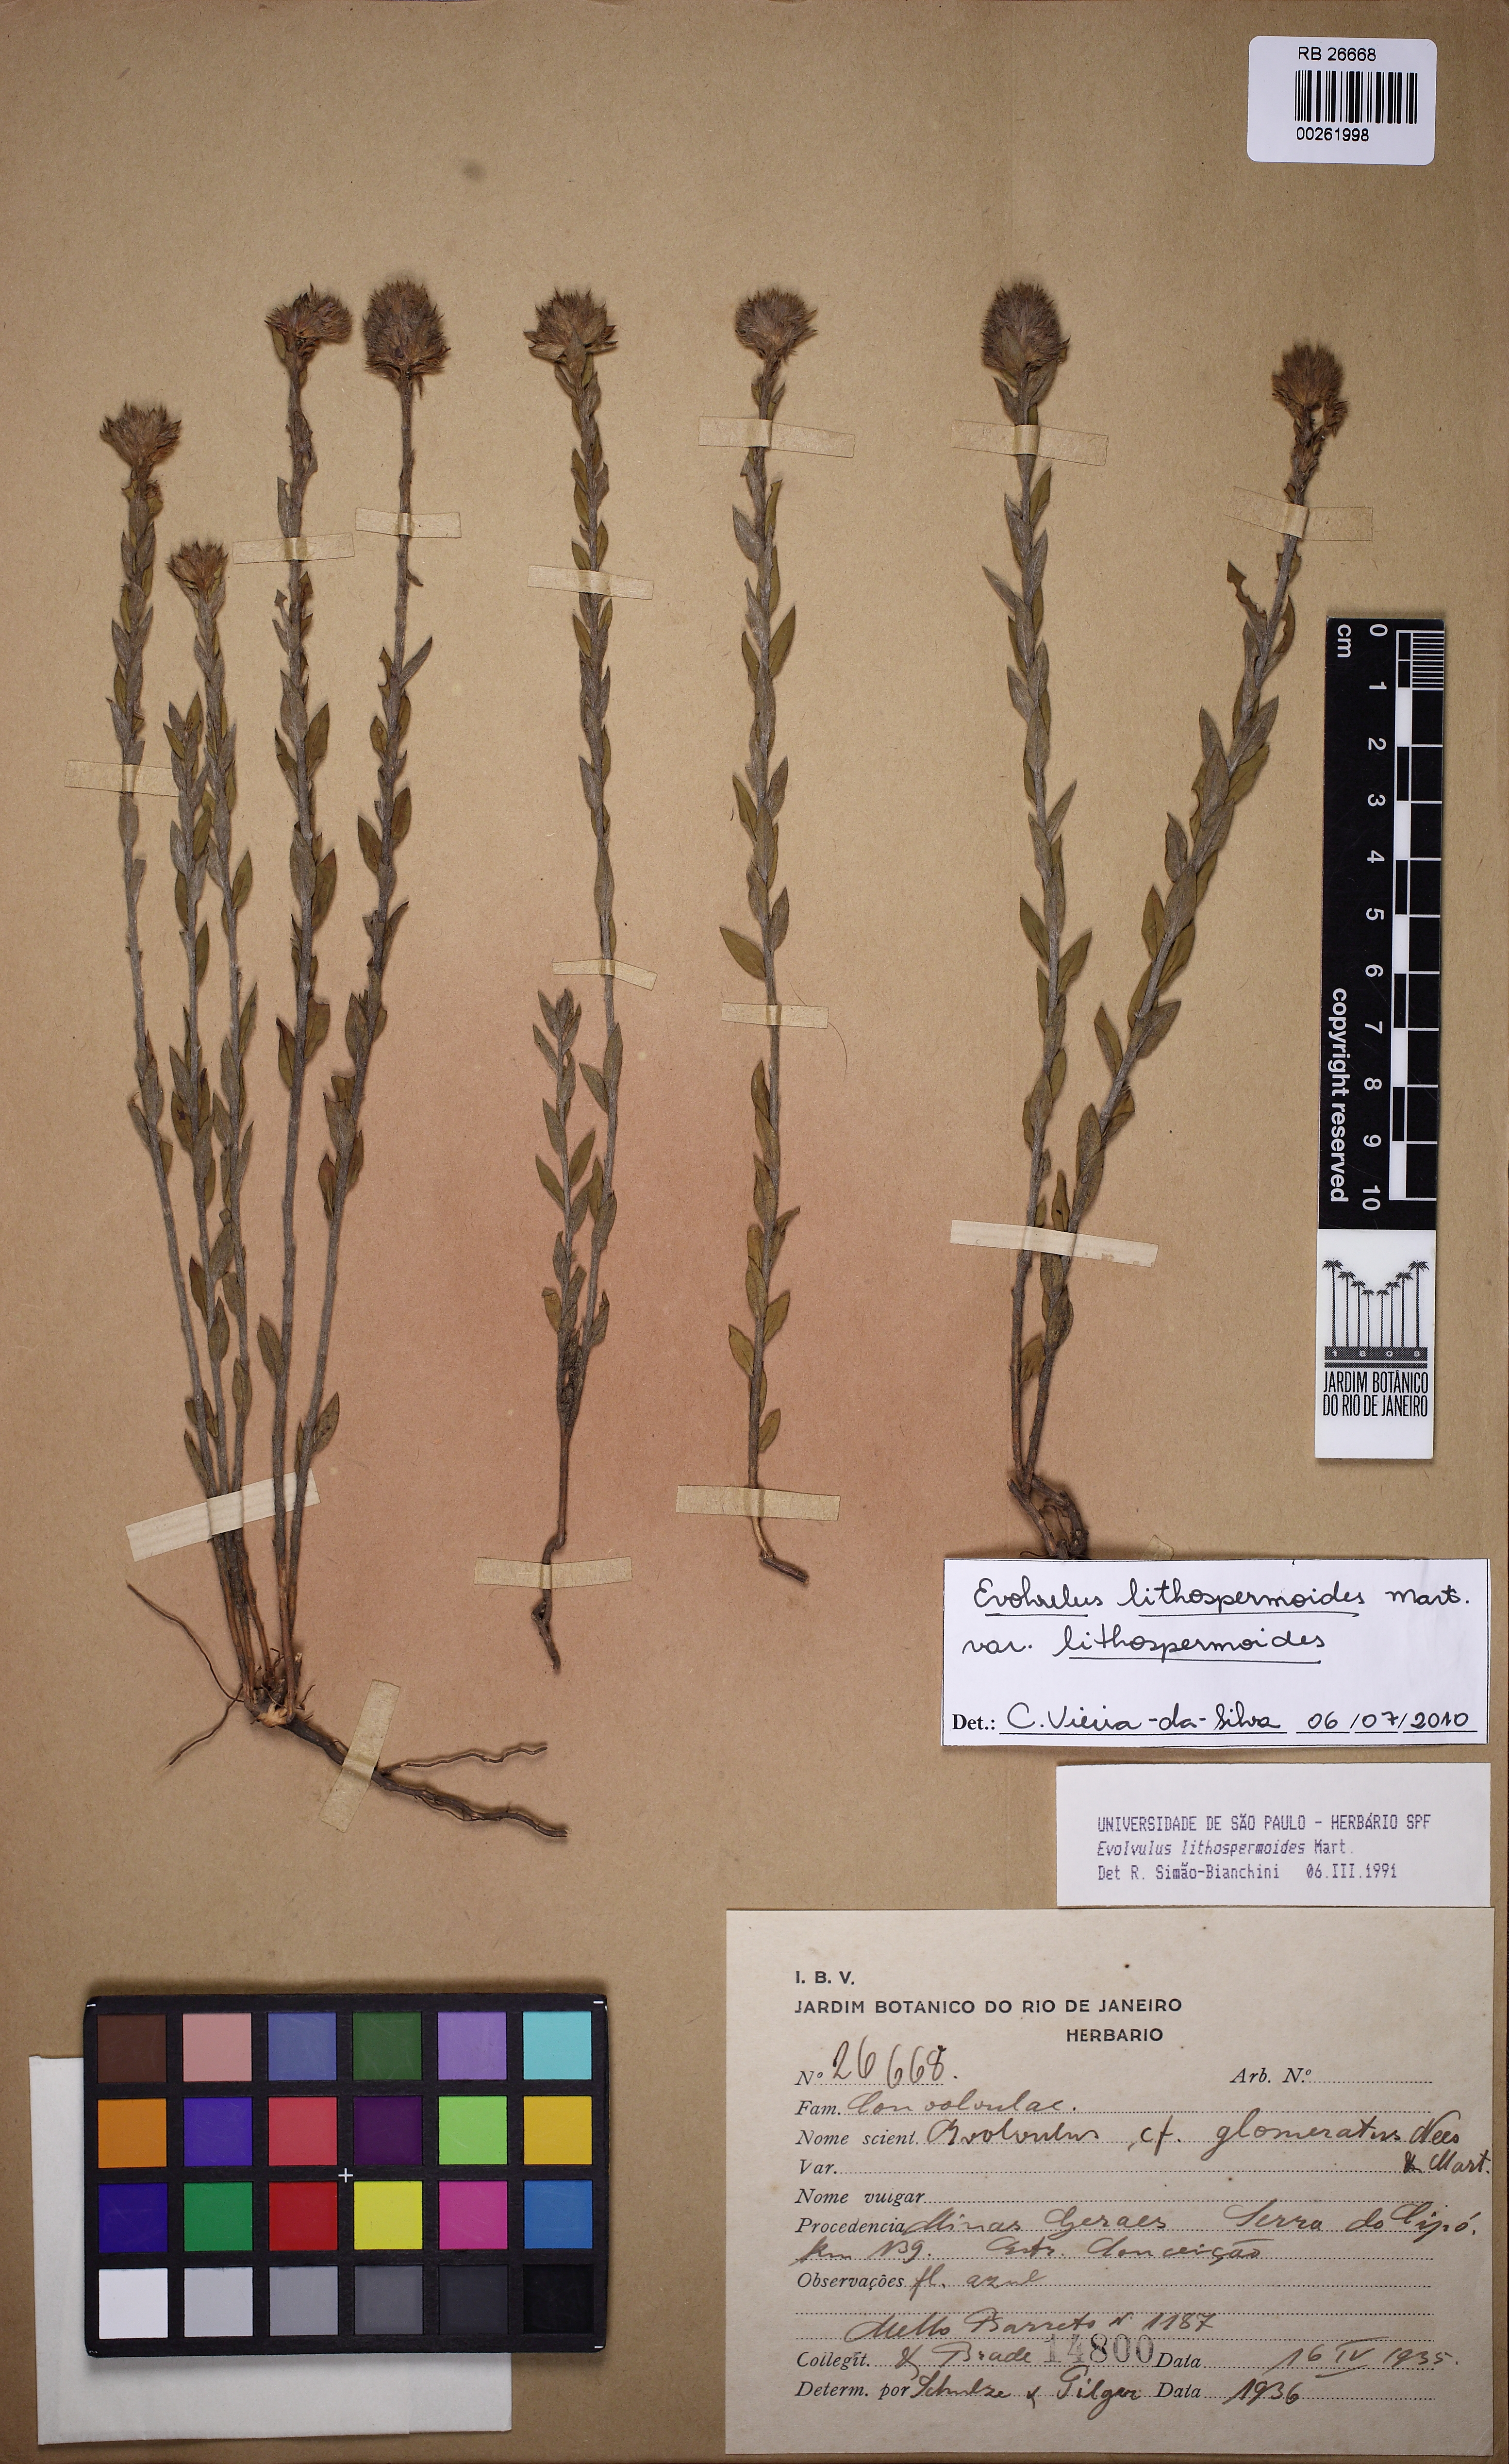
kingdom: Plantae
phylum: Tracheophyta
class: Magnoliopsida
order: Solanales
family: Convolvulaceae
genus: Evolvulus
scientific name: Evolvulus lithospermoides
